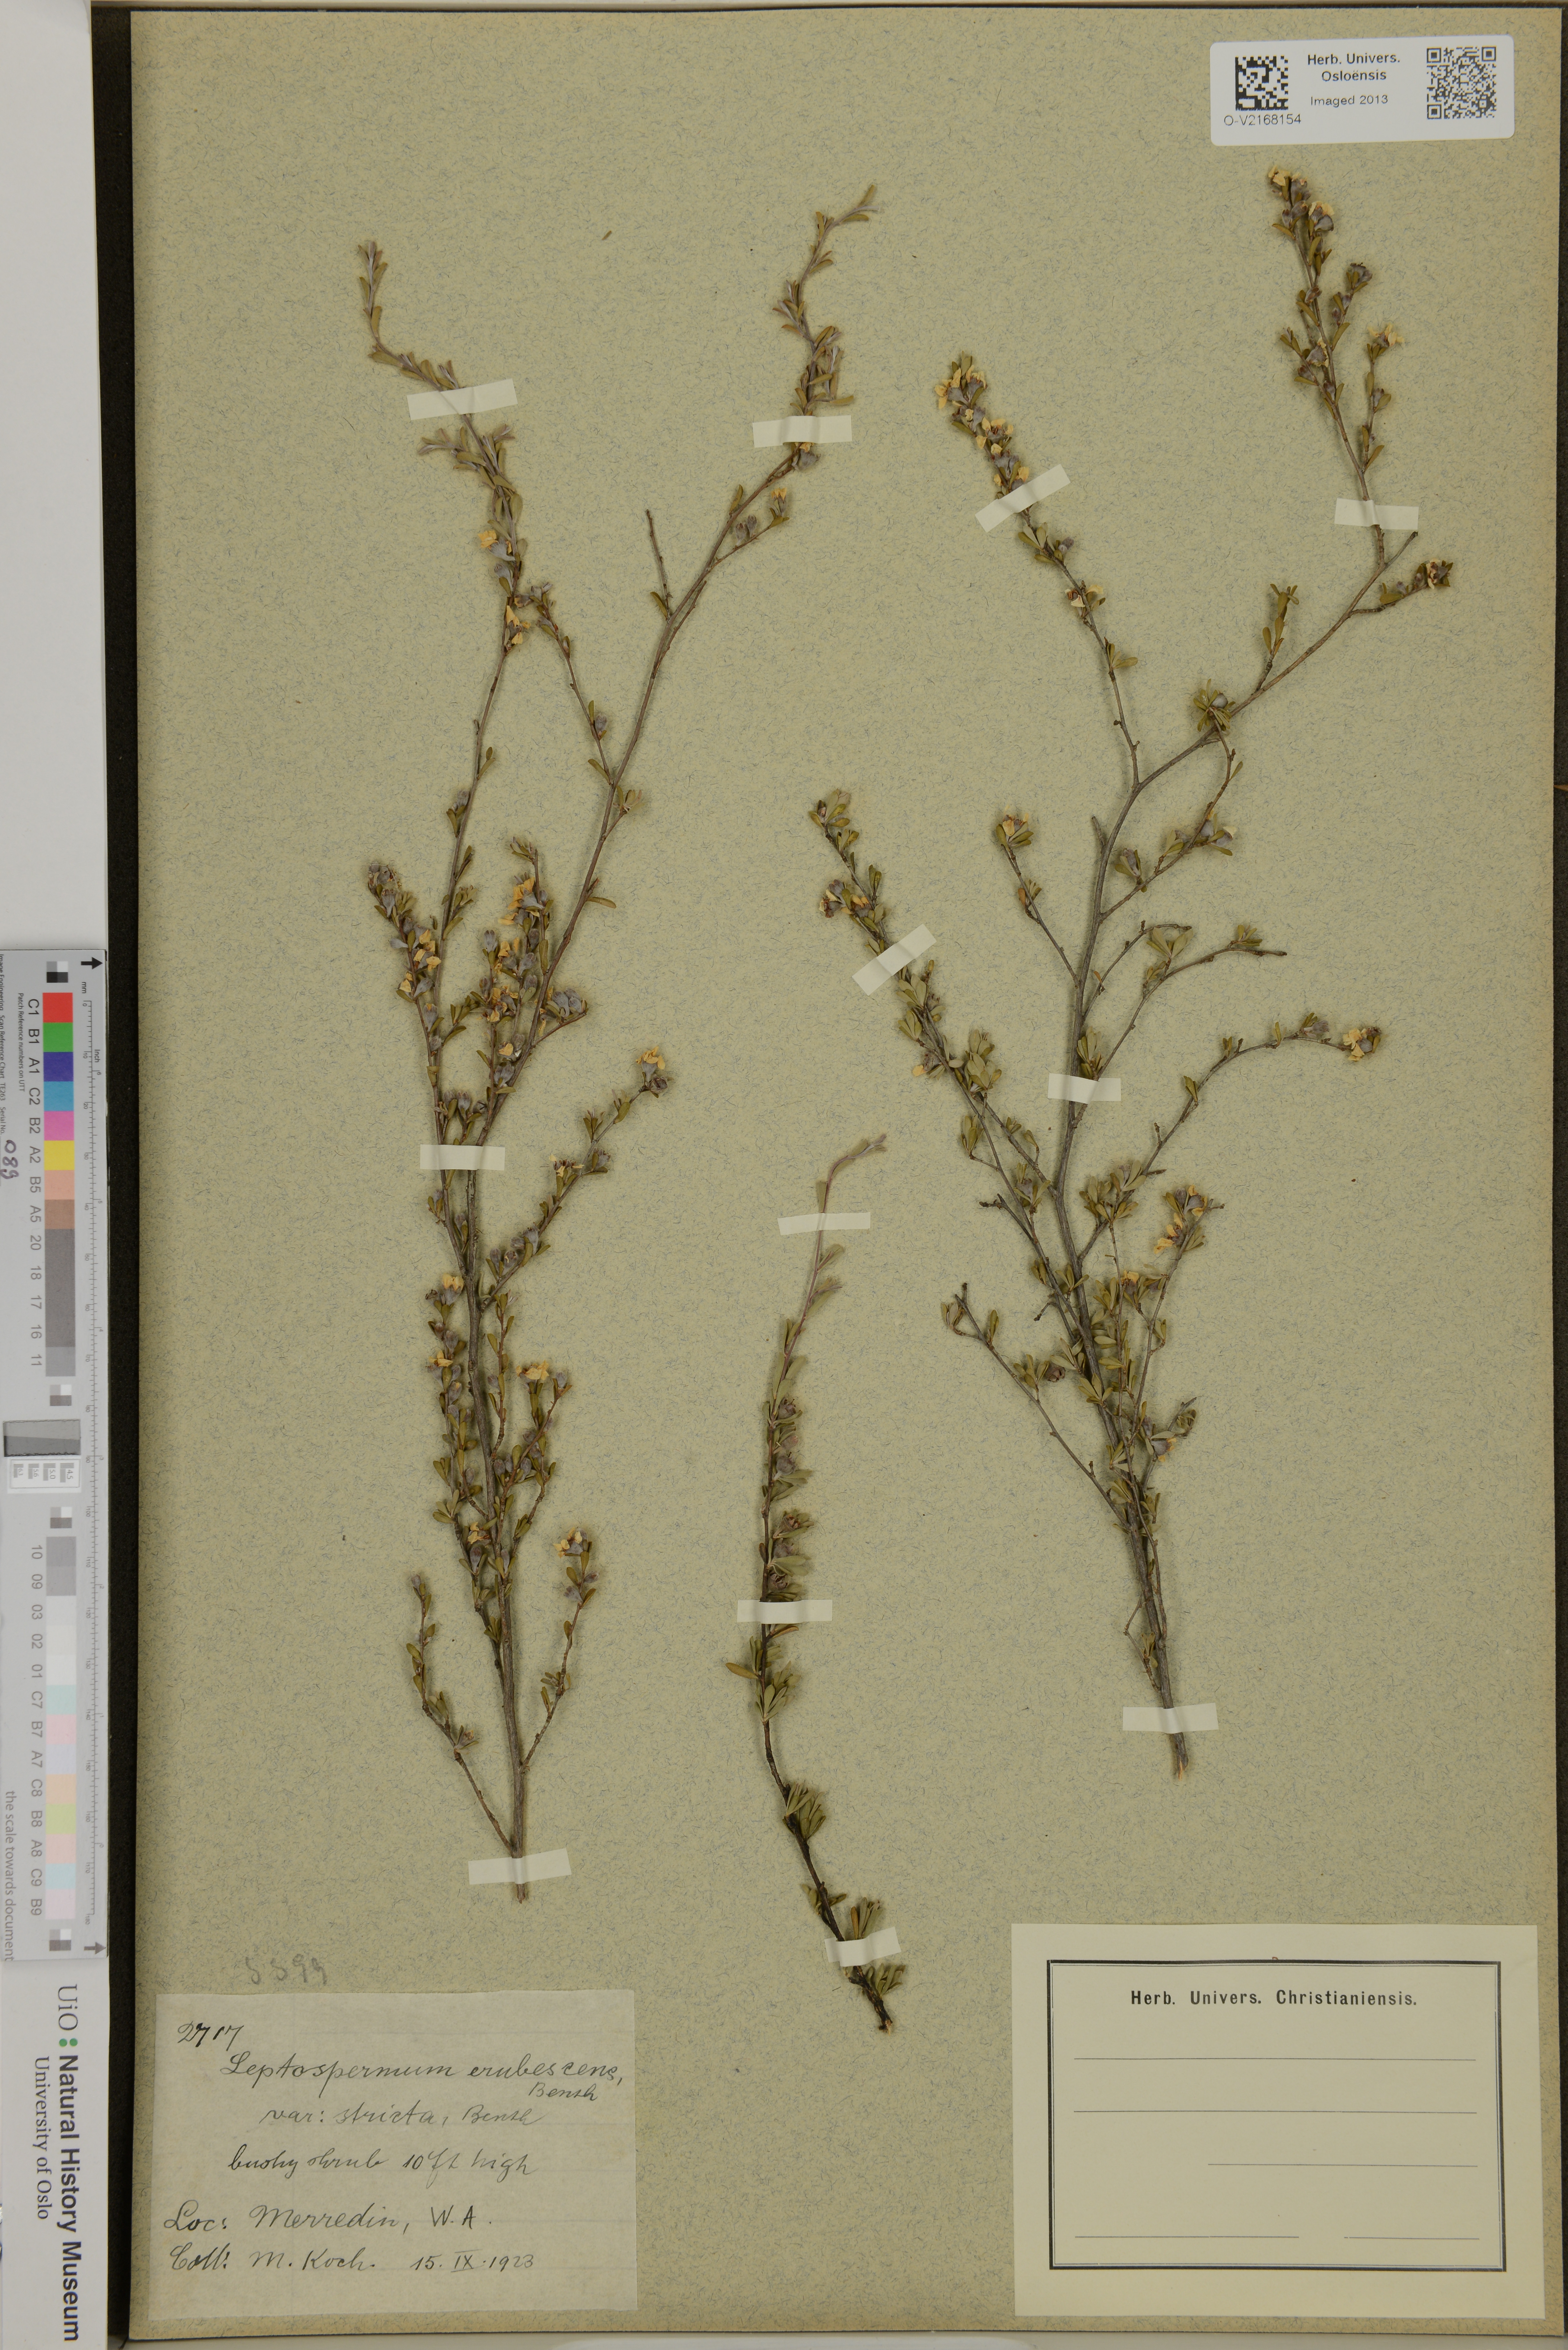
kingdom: Plantae
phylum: Tracheophyta
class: Magnoliopsida
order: Myrtales
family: Myrtaceae
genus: Leptospermum
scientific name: Leptospermum erubescens
